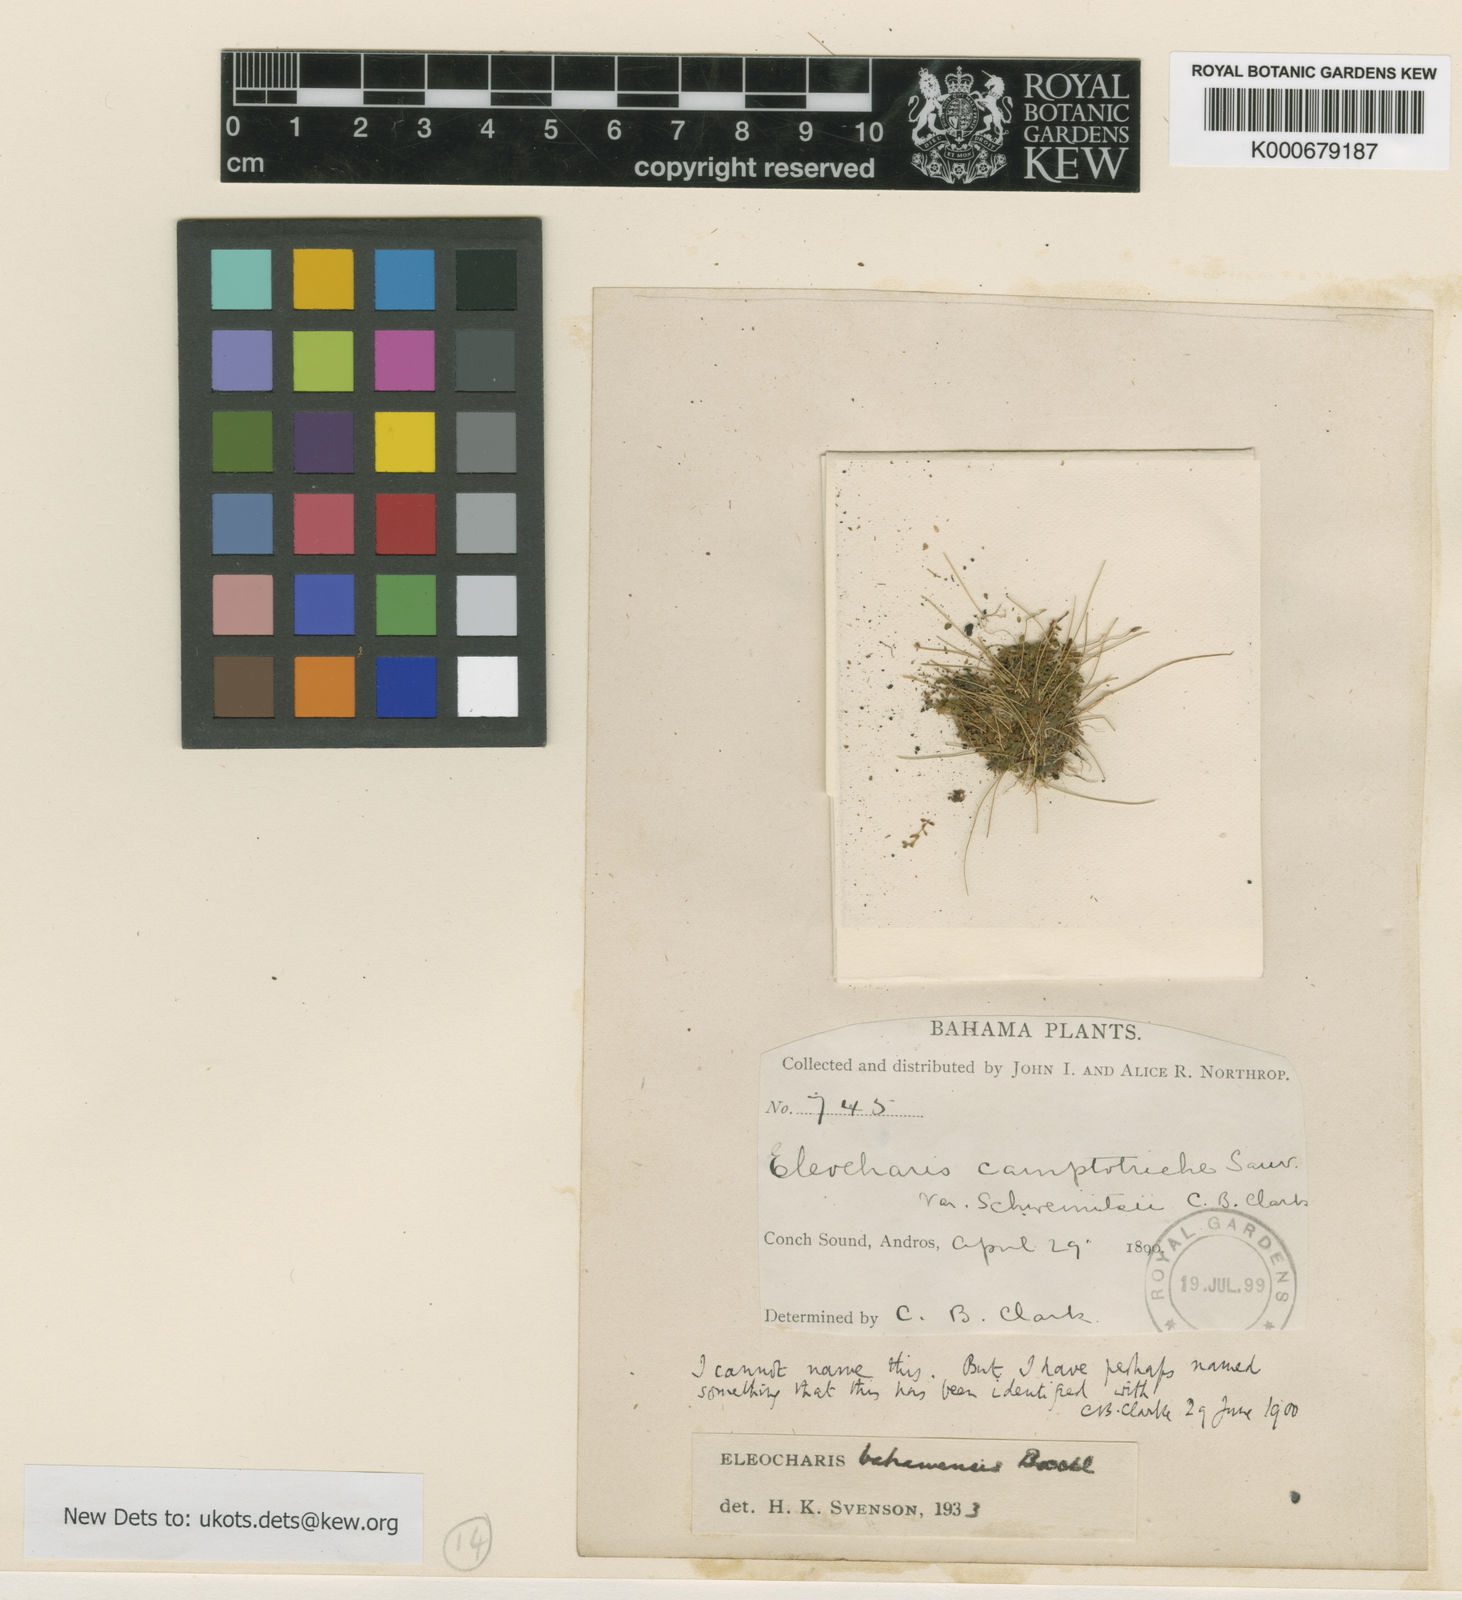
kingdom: Plantae
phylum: Tracheophyta
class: Liliopsida
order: Poales
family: Cyperaceae
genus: Eleocharis
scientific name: Eleocharis bahamensis
